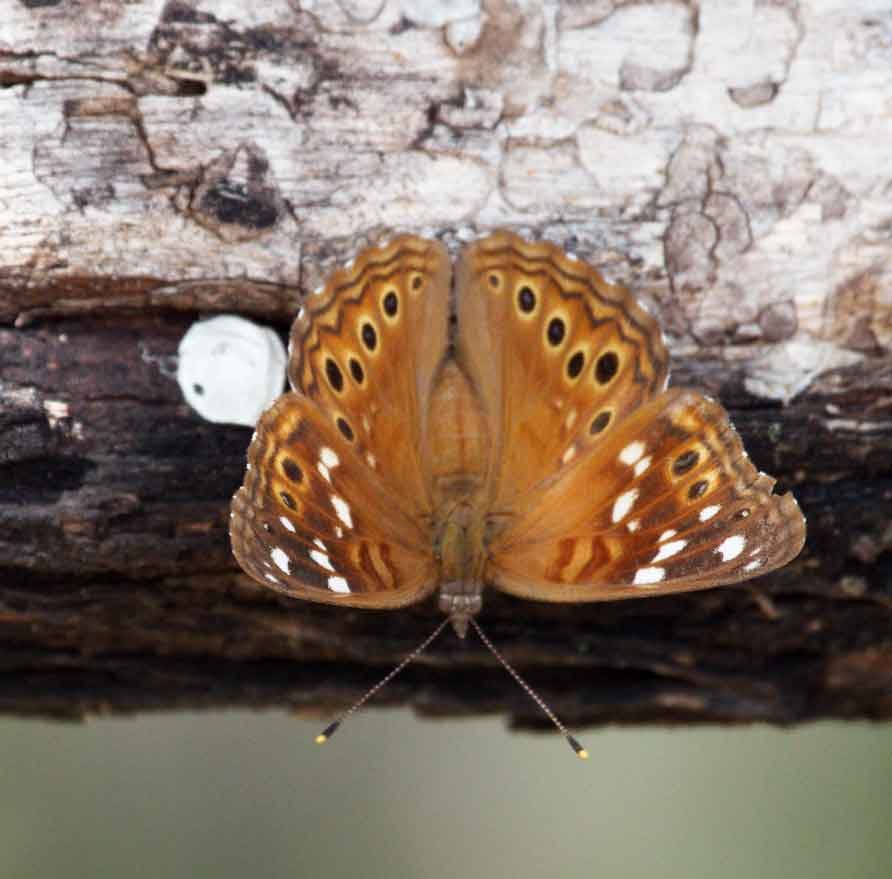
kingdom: Animalia
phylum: Arthropoda
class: Insecta
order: Lepidoptera
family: Nymphalidae
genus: Asterocampa
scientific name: Asterocampa leilia
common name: Empress Leilia
